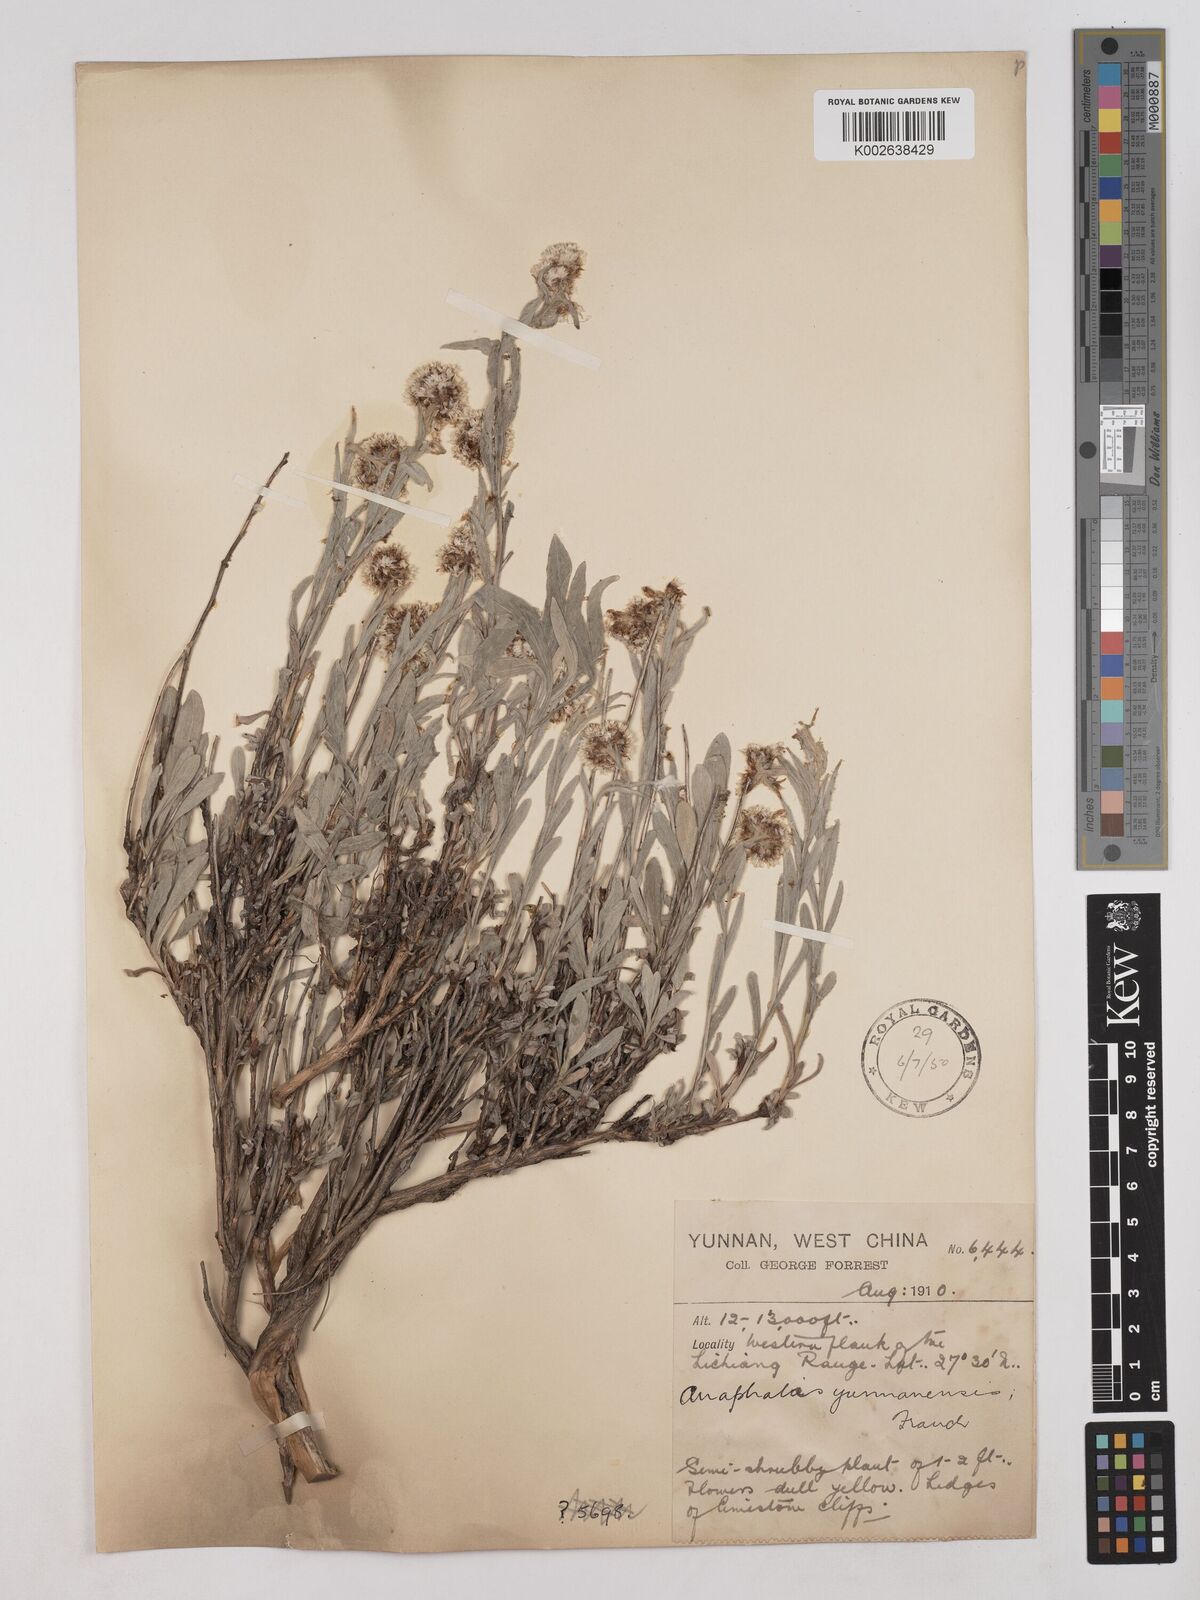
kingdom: Plantae
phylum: Tracheophyta
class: Magnoliopsida
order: Asterales
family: Asteraceae
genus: Anaphalis
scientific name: Anaphalis yunnanensis
